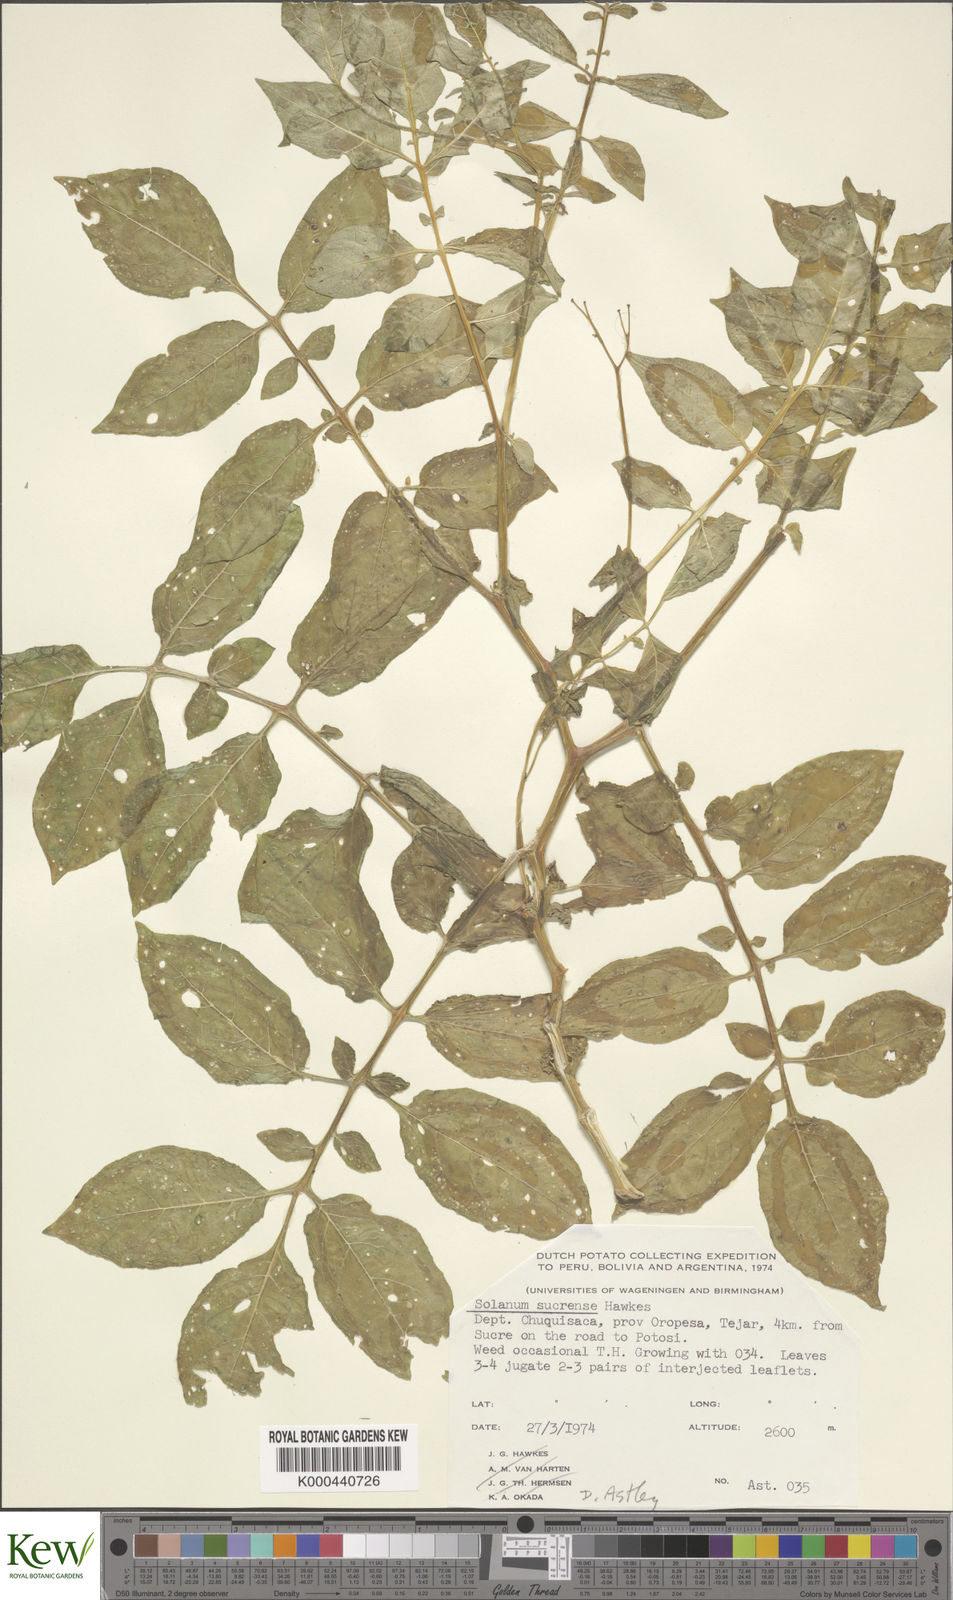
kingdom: Plantae
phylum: Tracheophyta
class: Magnoliopsida
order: Solanales
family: Solanaceae
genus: Solanum
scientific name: Solanum brevicaule
